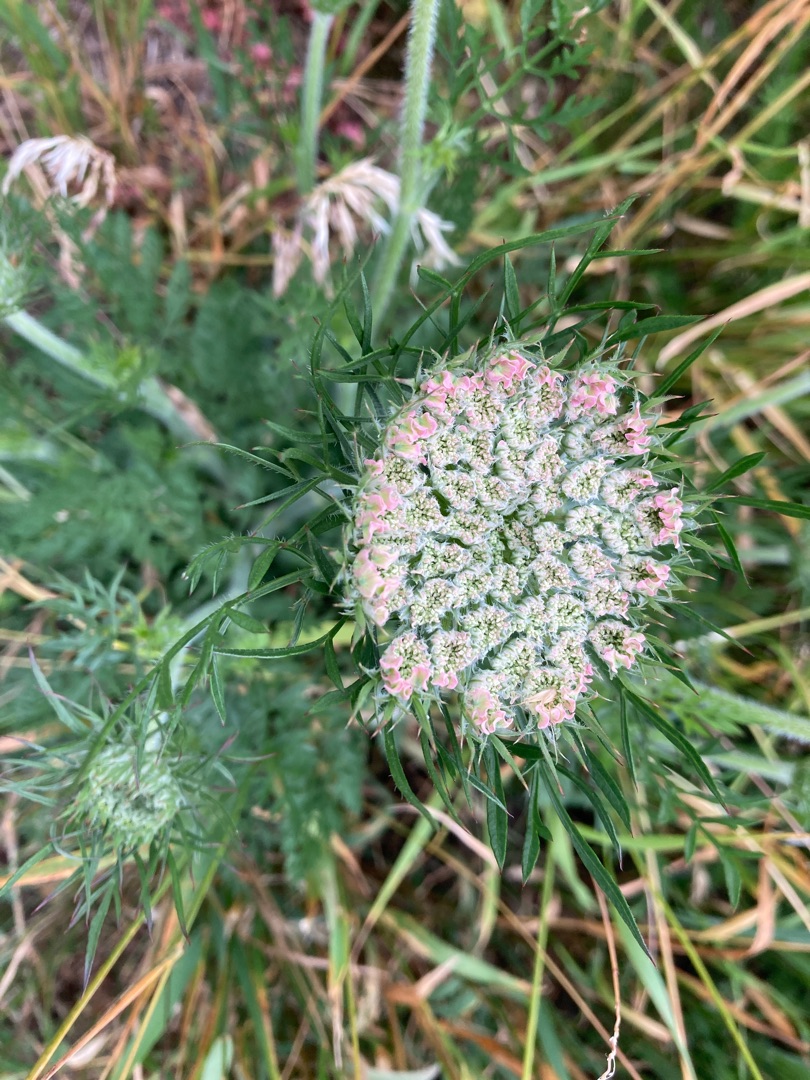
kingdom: Plantae
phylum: Tracheophyta
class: Magnoliopsida
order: Apiales
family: Apiaceae
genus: Daucus
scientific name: Daucus carota
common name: Gulerod
